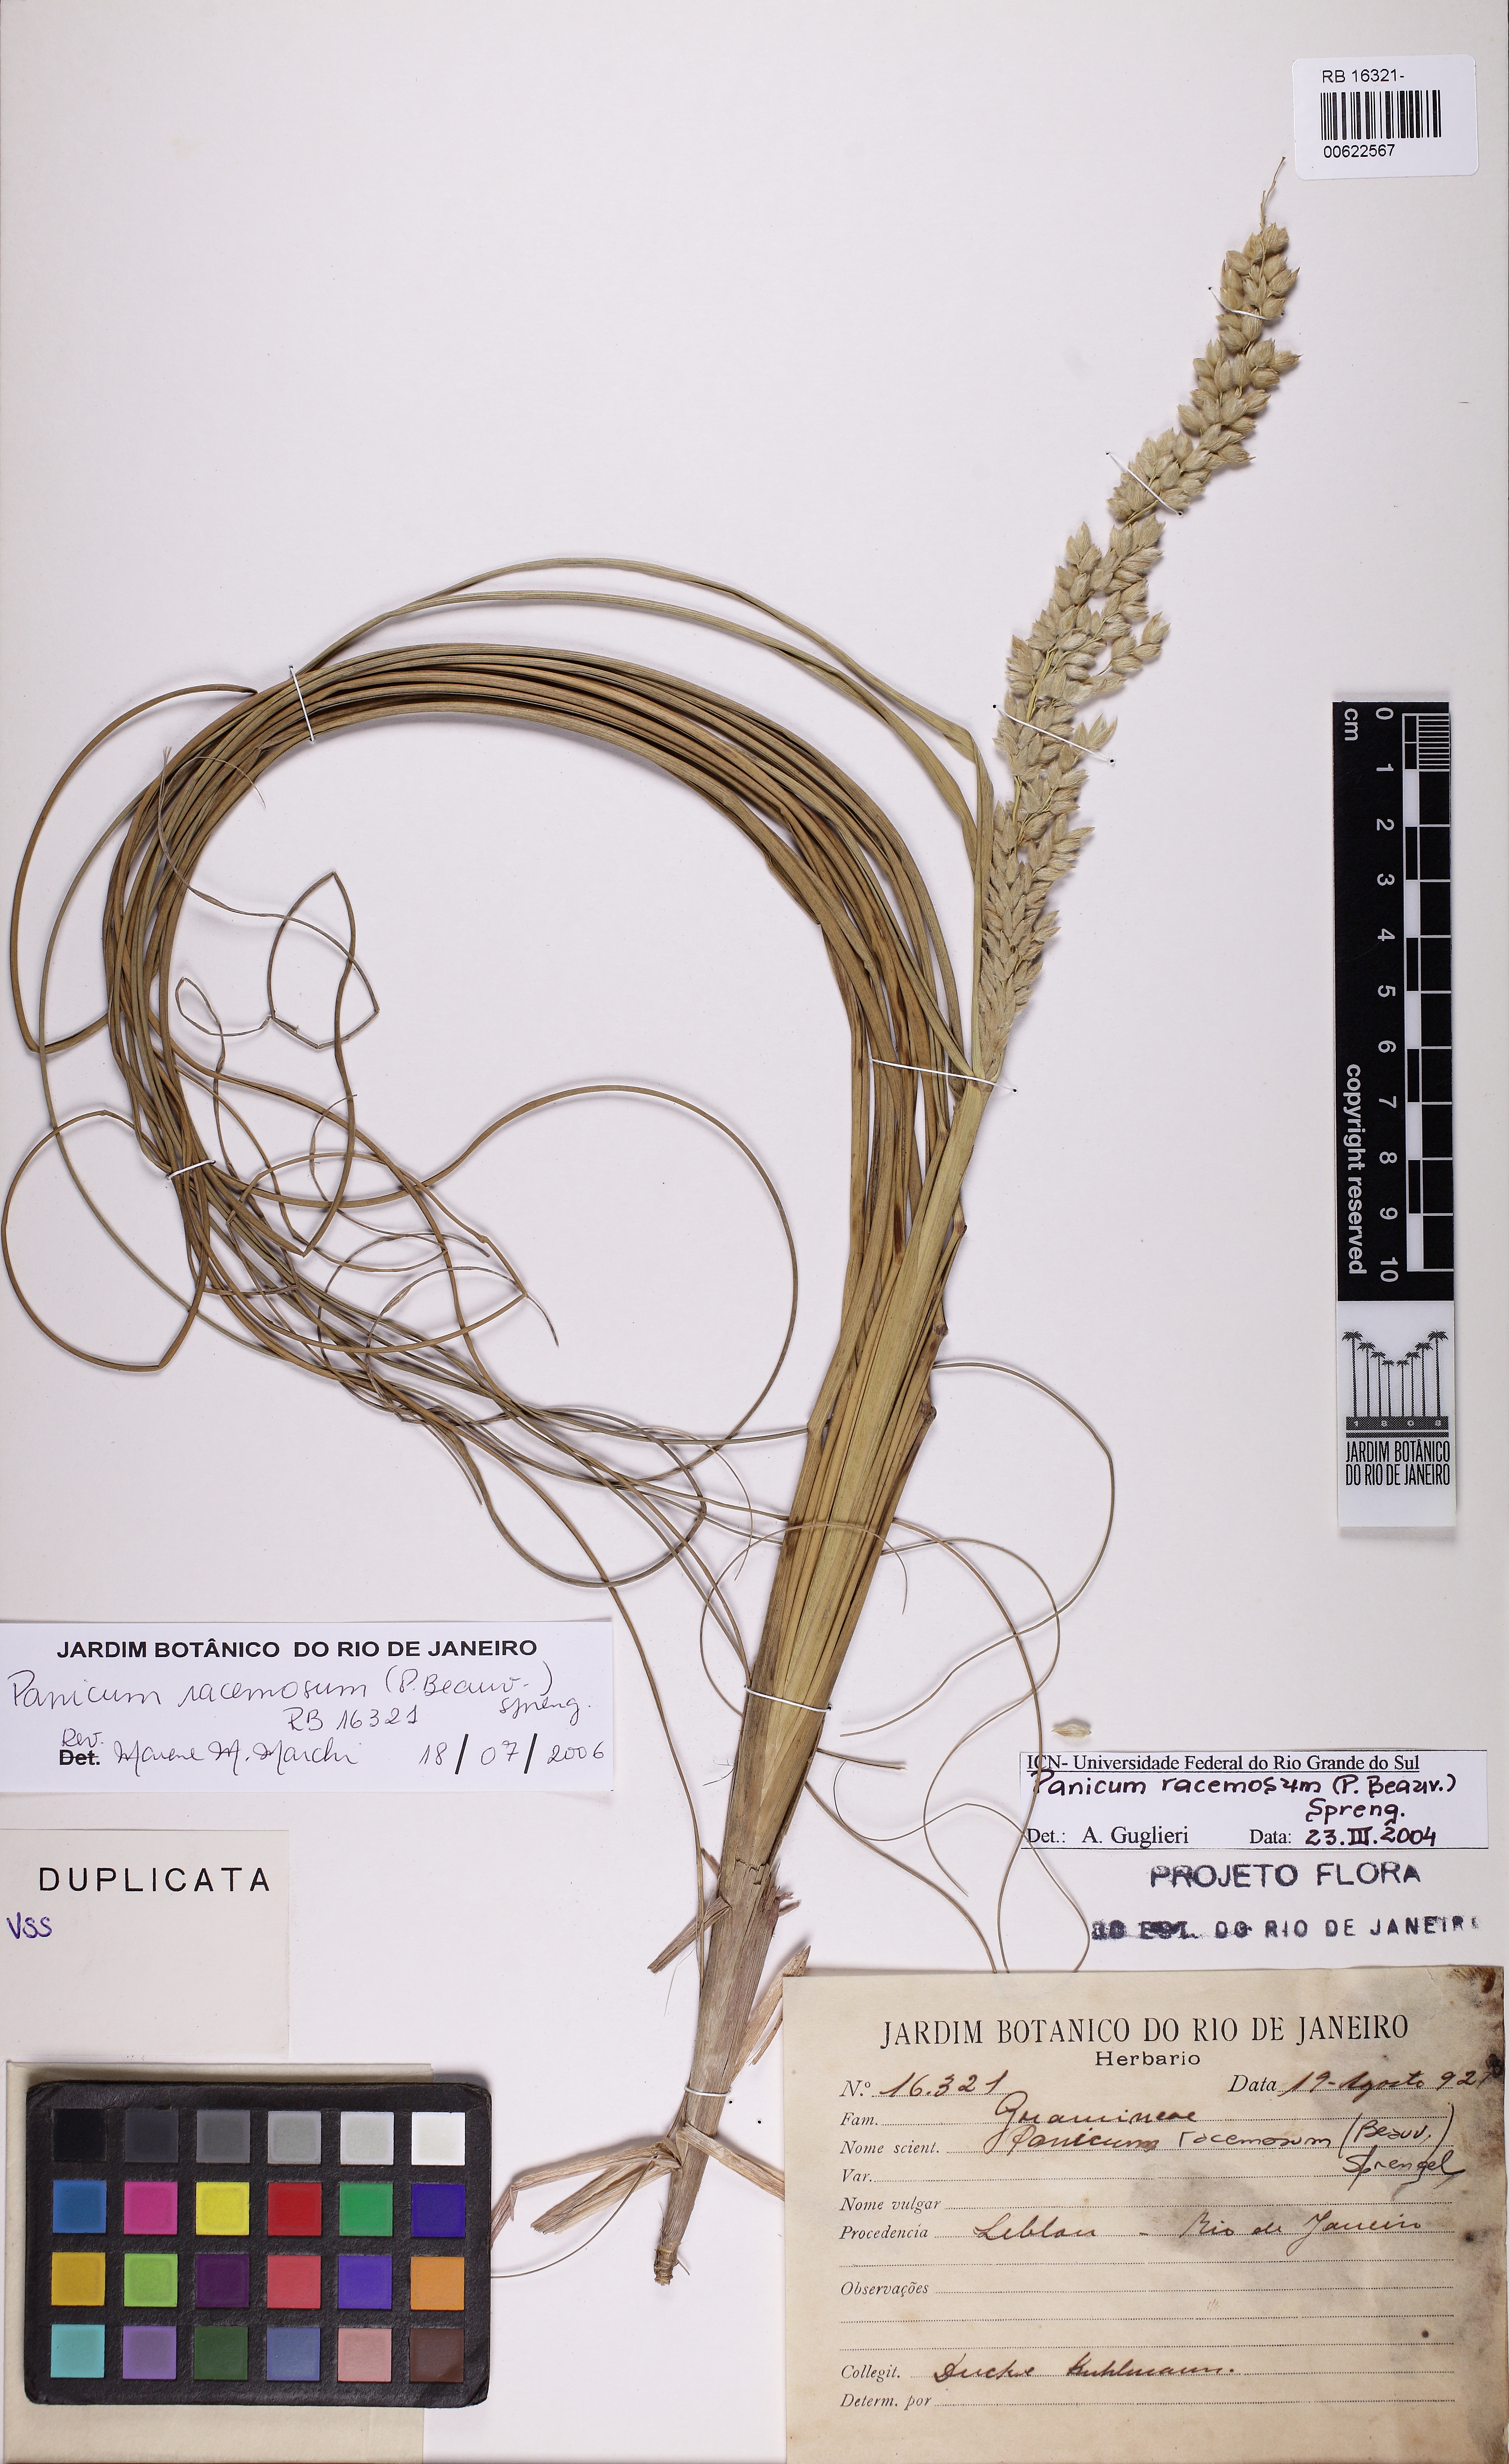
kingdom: Plantae
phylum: Tracheophyta
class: Liliopsida
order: Poales
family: Poaceae
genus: Panicum
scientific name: Panicum racemosum
